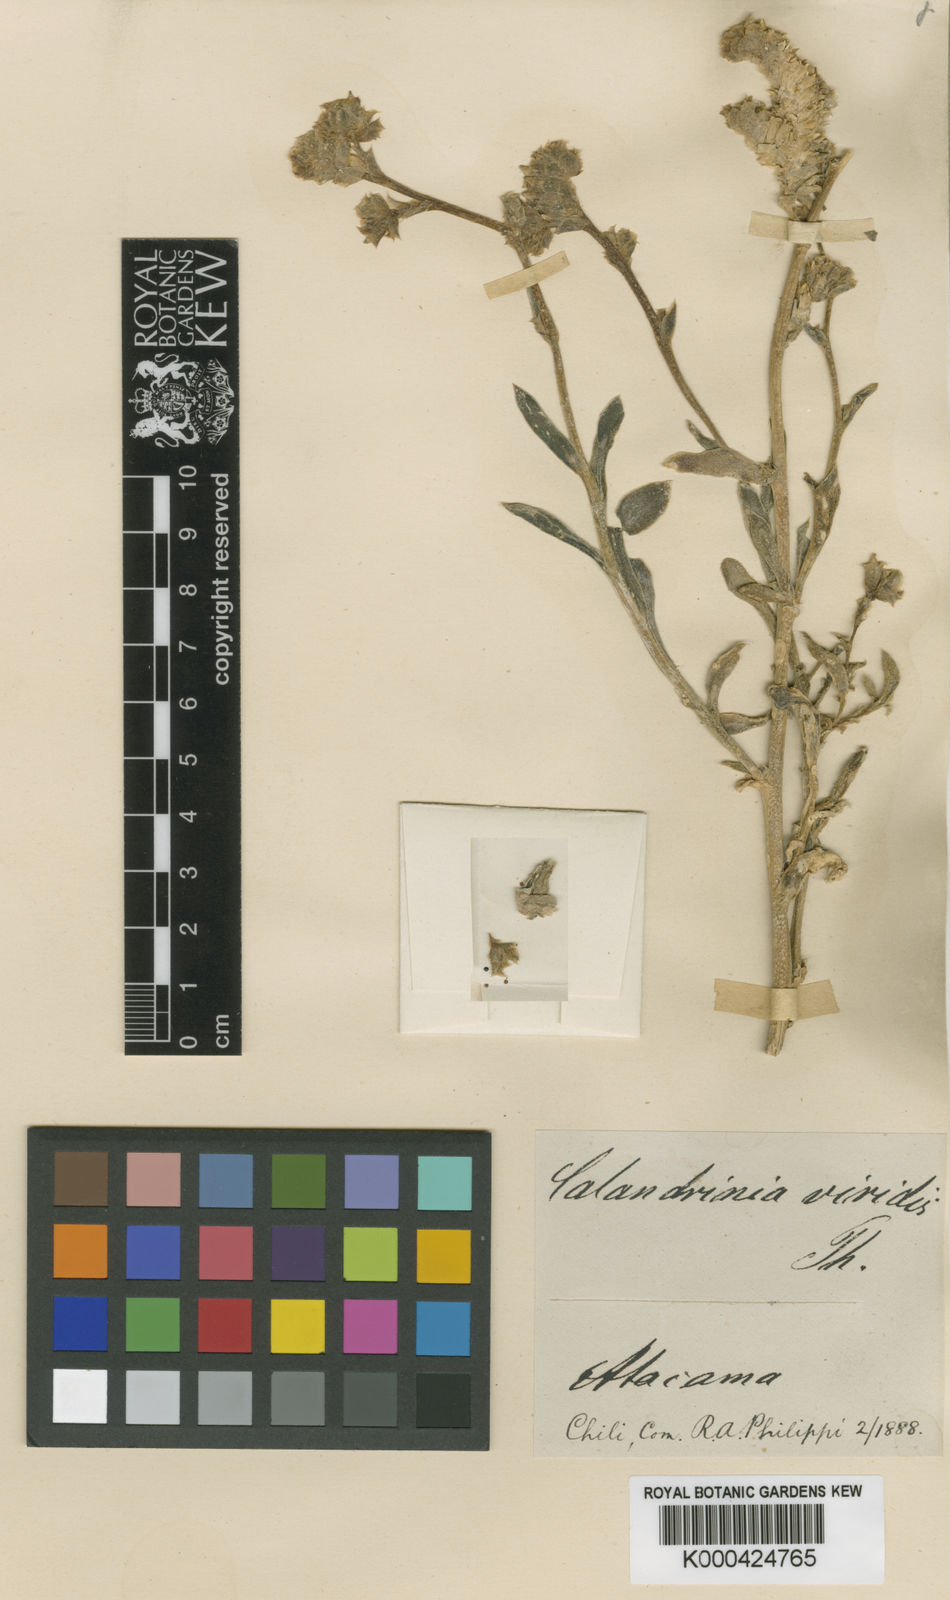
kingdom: Plantae
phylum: Tracheophyta
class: Magnoliopsida
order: Caryophyllales
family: Montiaceae
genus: Cistanthe
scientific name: Cistanthe
